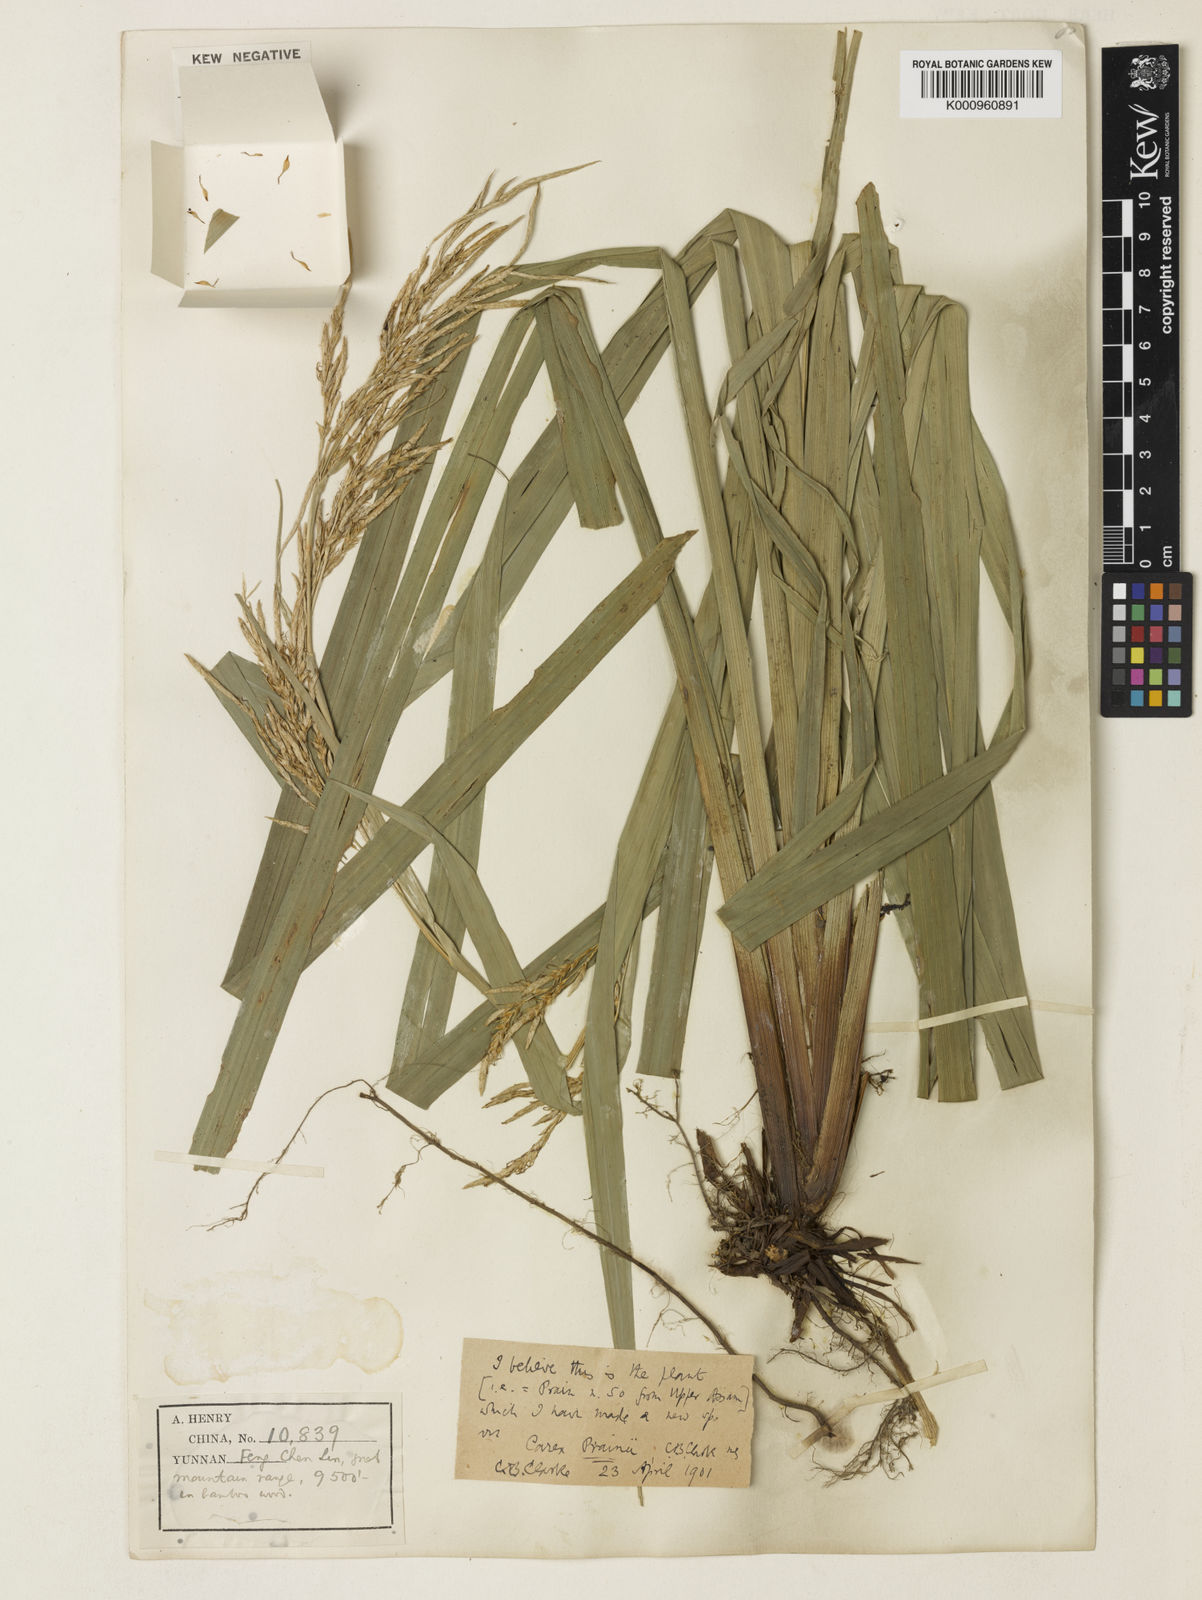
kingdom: Plantae
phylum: Tracheophyta
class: Liliopsida
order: Poales
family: Cyperaceae
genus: Carex
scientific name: Carex perakensis
